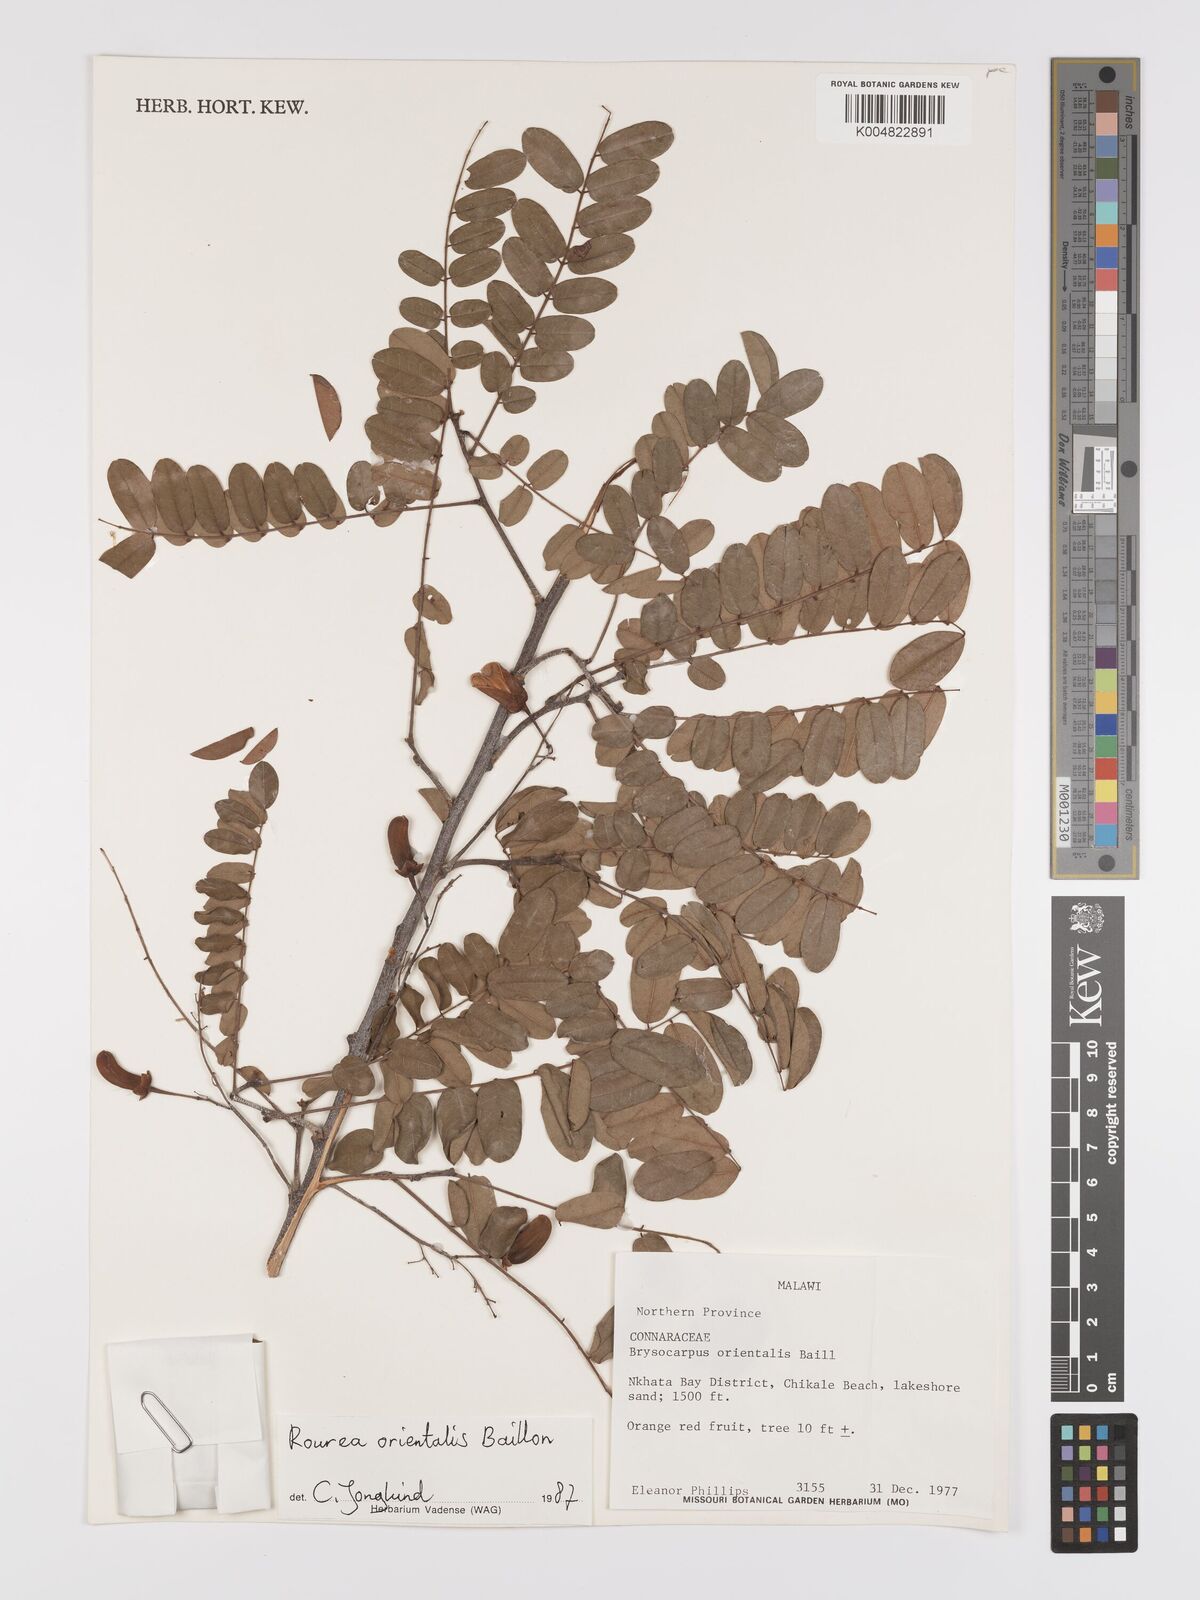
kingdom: Plantae
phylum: Tracheophyta
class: Magnoliopsida
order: Oxalidales
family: Connaraceae
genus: Rourea
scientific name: Rourea orientalis
